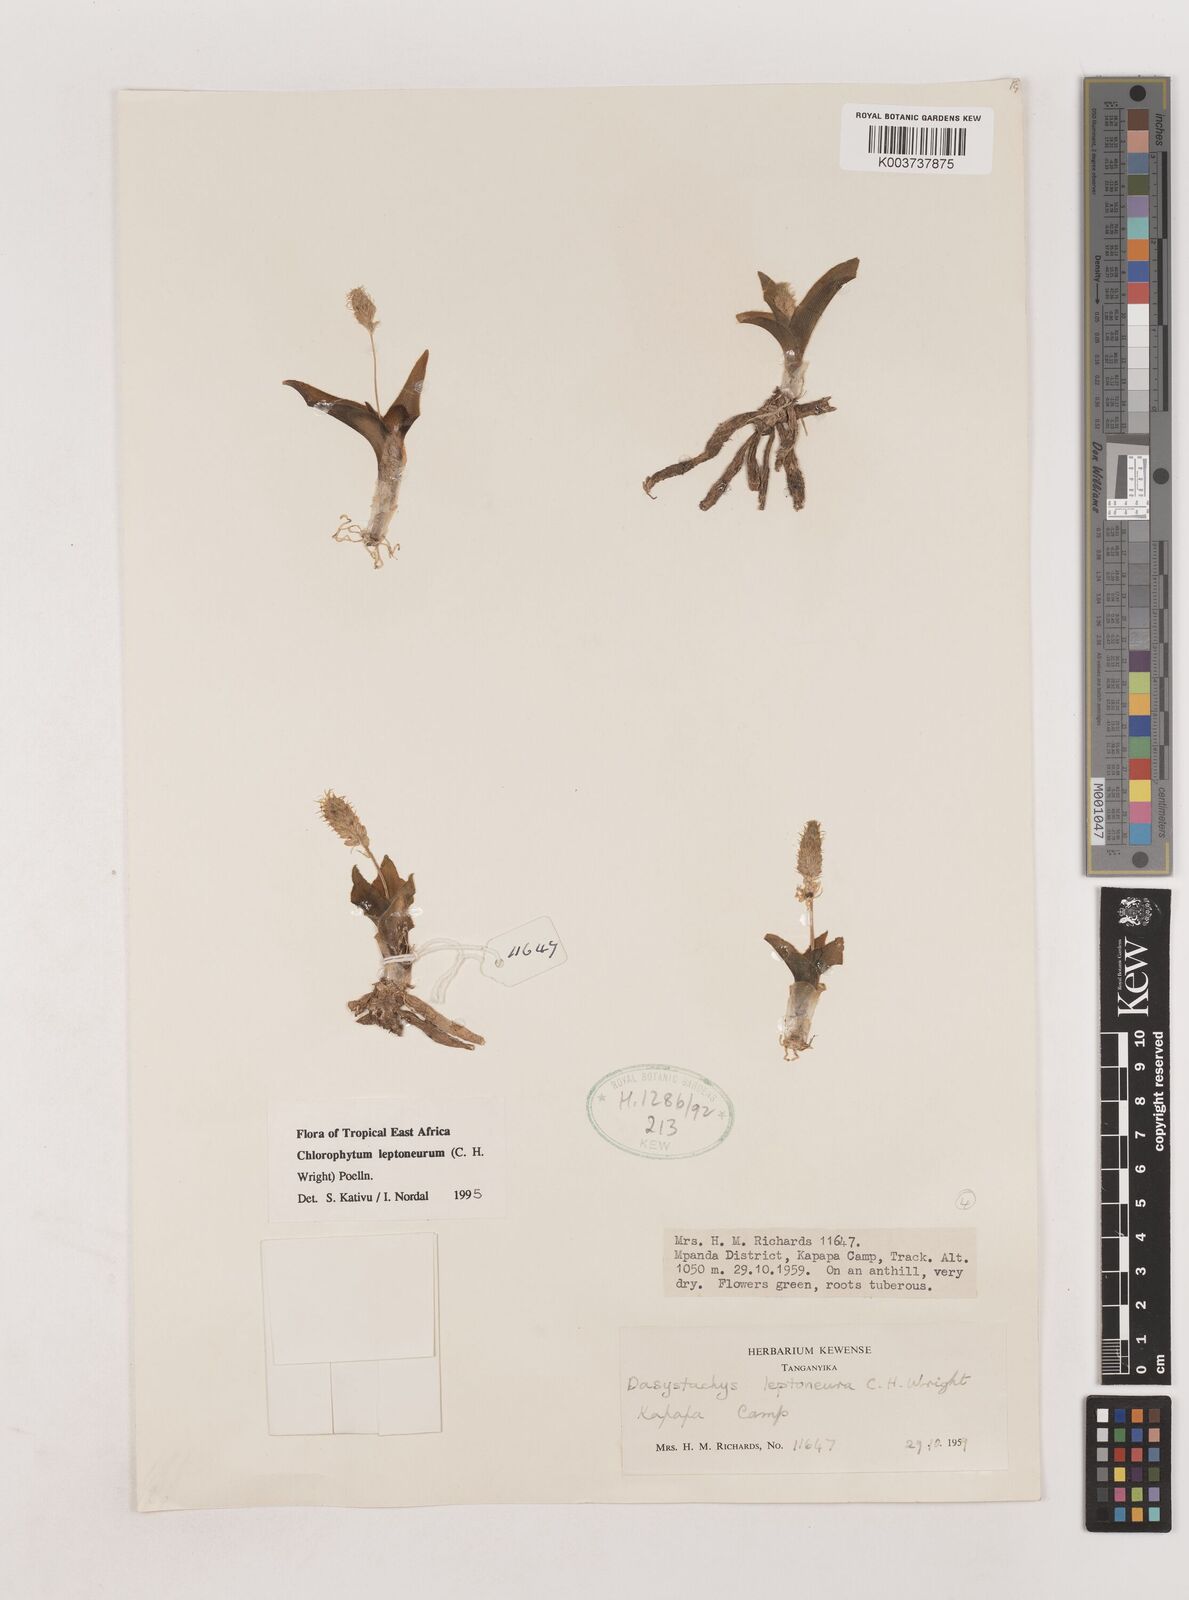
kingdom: Plantae
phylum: Tracheophyta
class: Liliopsida
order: Asparagales
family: Asparagaceae
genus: Chlorophytum
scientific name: Chlorophytum leptoneurum
